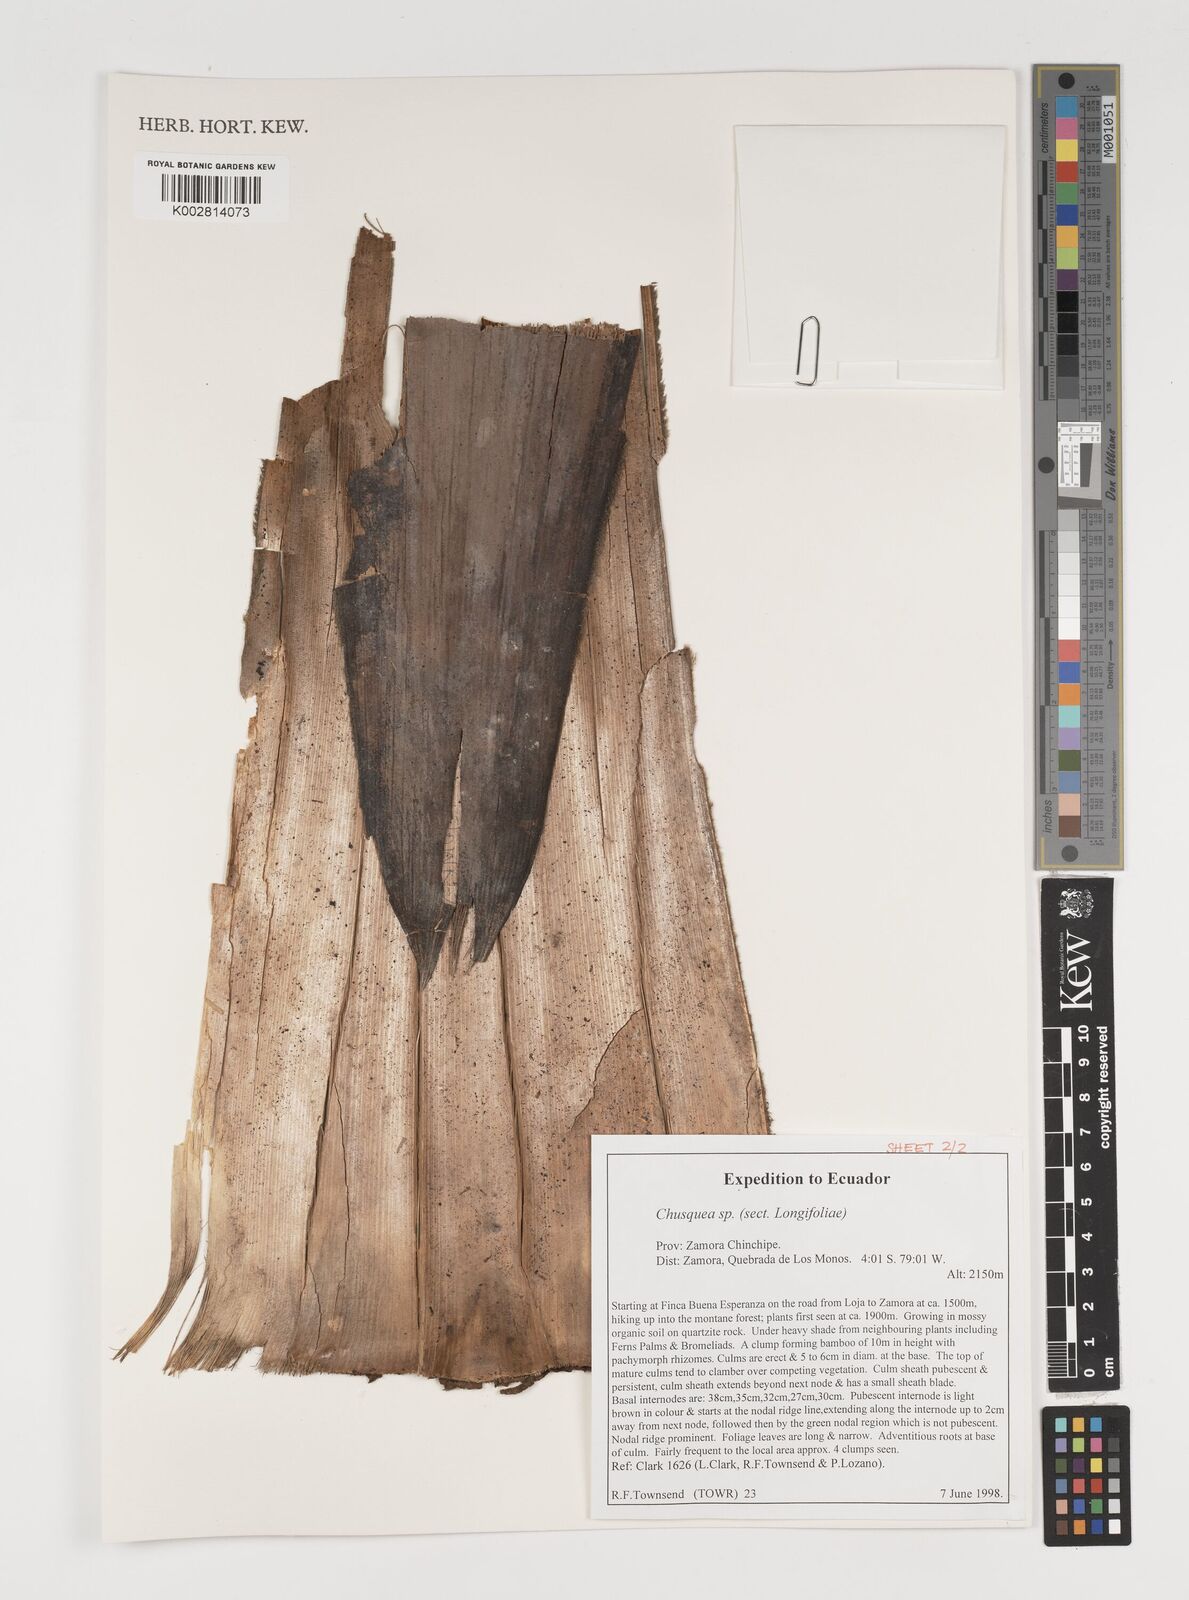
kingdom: Plantae
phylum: Tracheophyta
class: Liliopsida
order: Poales
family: Poaceae
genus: Chusquea
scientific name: Chusquea
